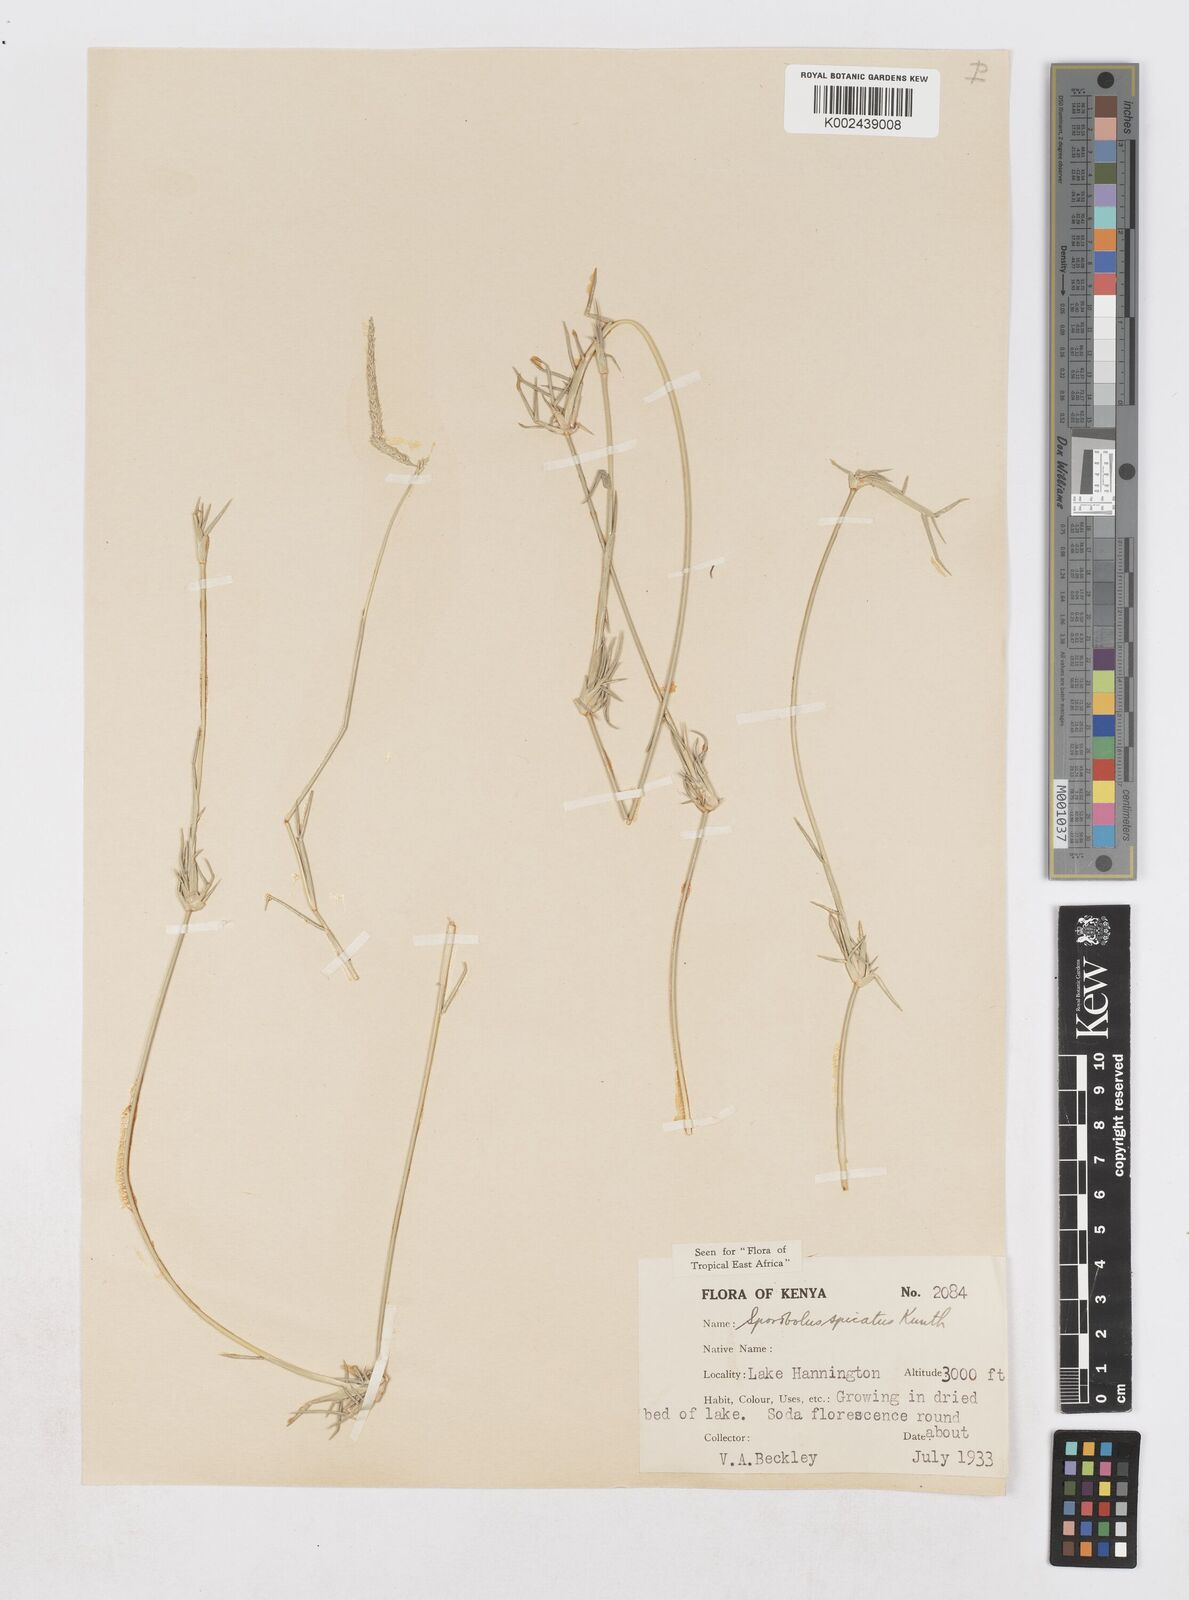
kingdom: Plantae
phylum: Tracheophyta
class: Liliopsida
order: Poales
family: Poaceae
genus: Sporobolus
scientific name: Sporobolus spicatus
